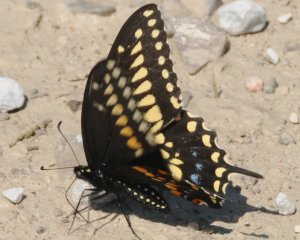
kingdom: Animalia
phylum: Arthropoda
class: Insecta
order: Lepidoptera
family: Papilionidae
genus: Papilio
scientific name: Papilio polyxenes
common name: Black Swallowtail
